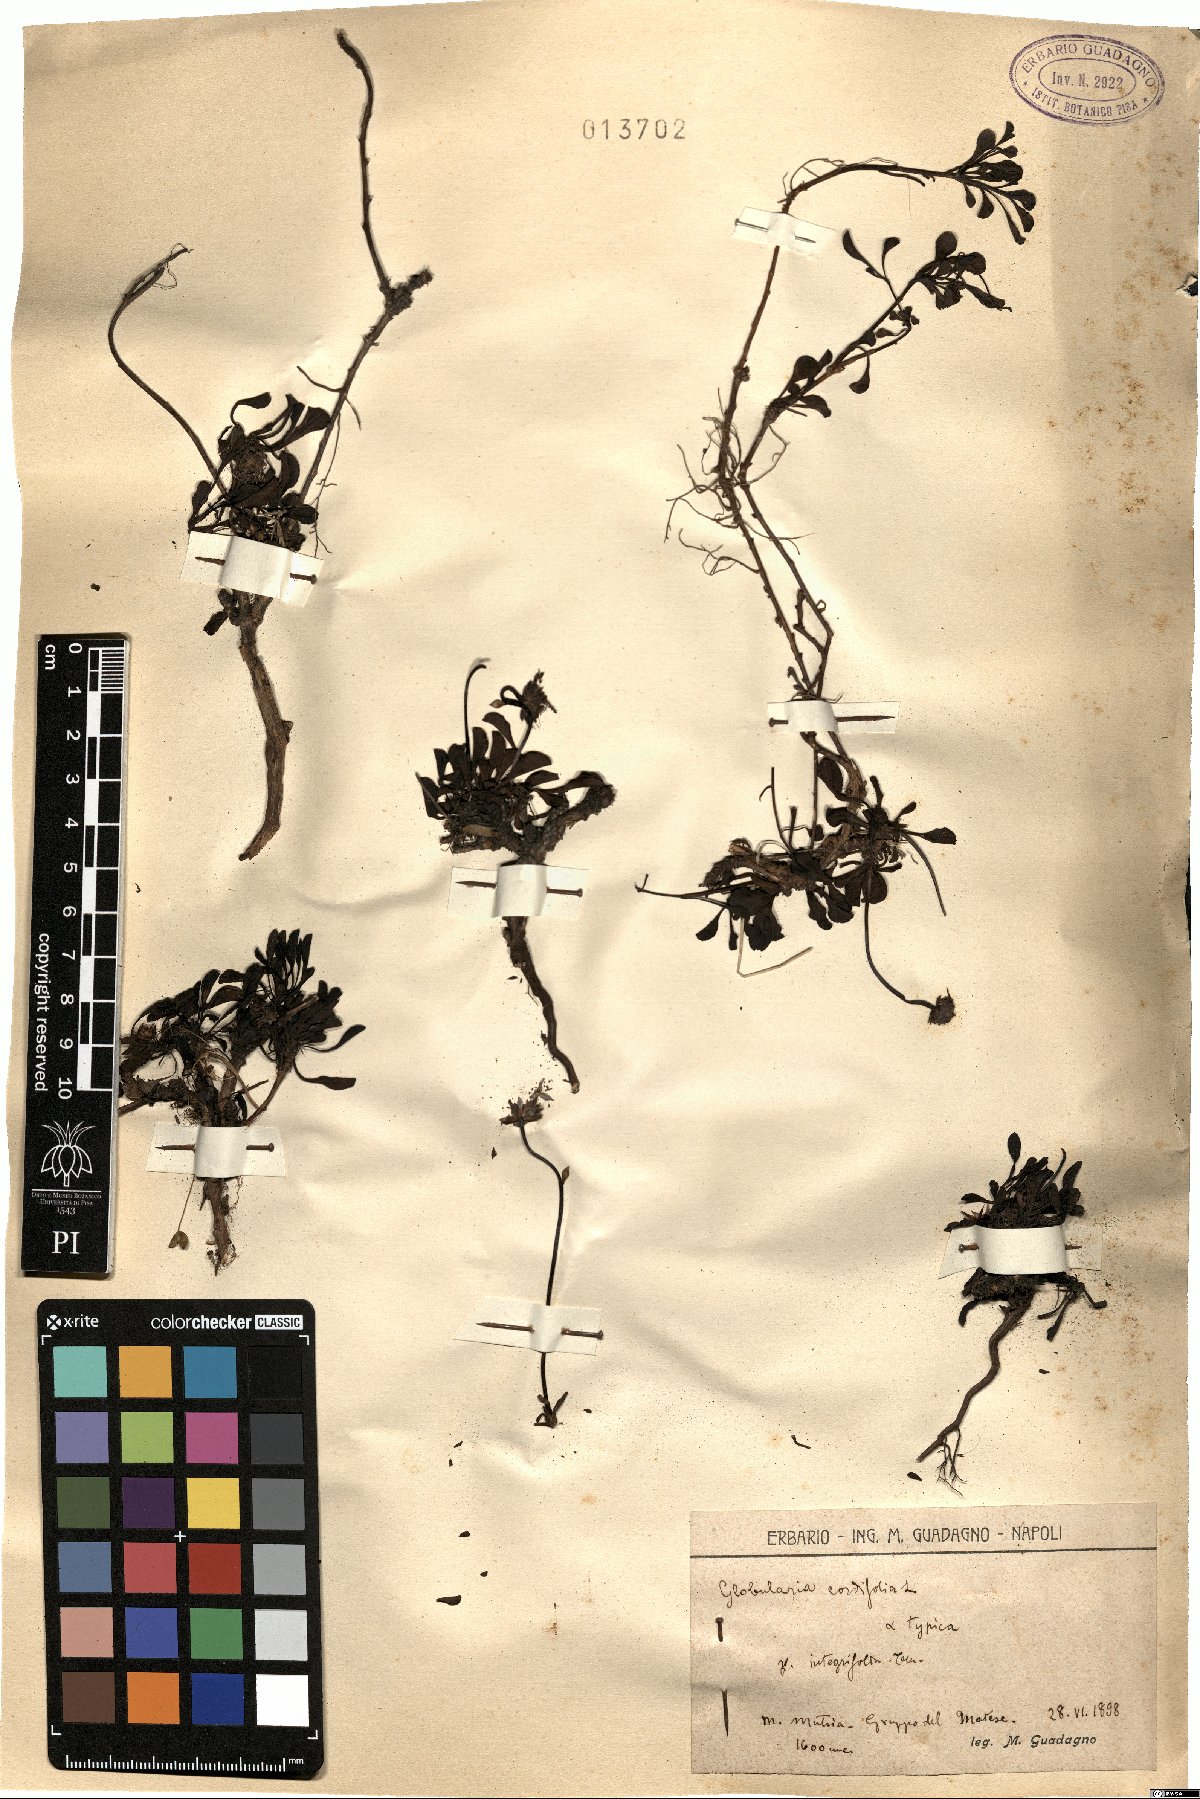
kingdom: Plantae
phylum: Tracheophyta
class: Magnoliopsida
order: Lamiales
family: Plantaginaceae
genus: Globularia
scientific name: Globularia cordifolia
